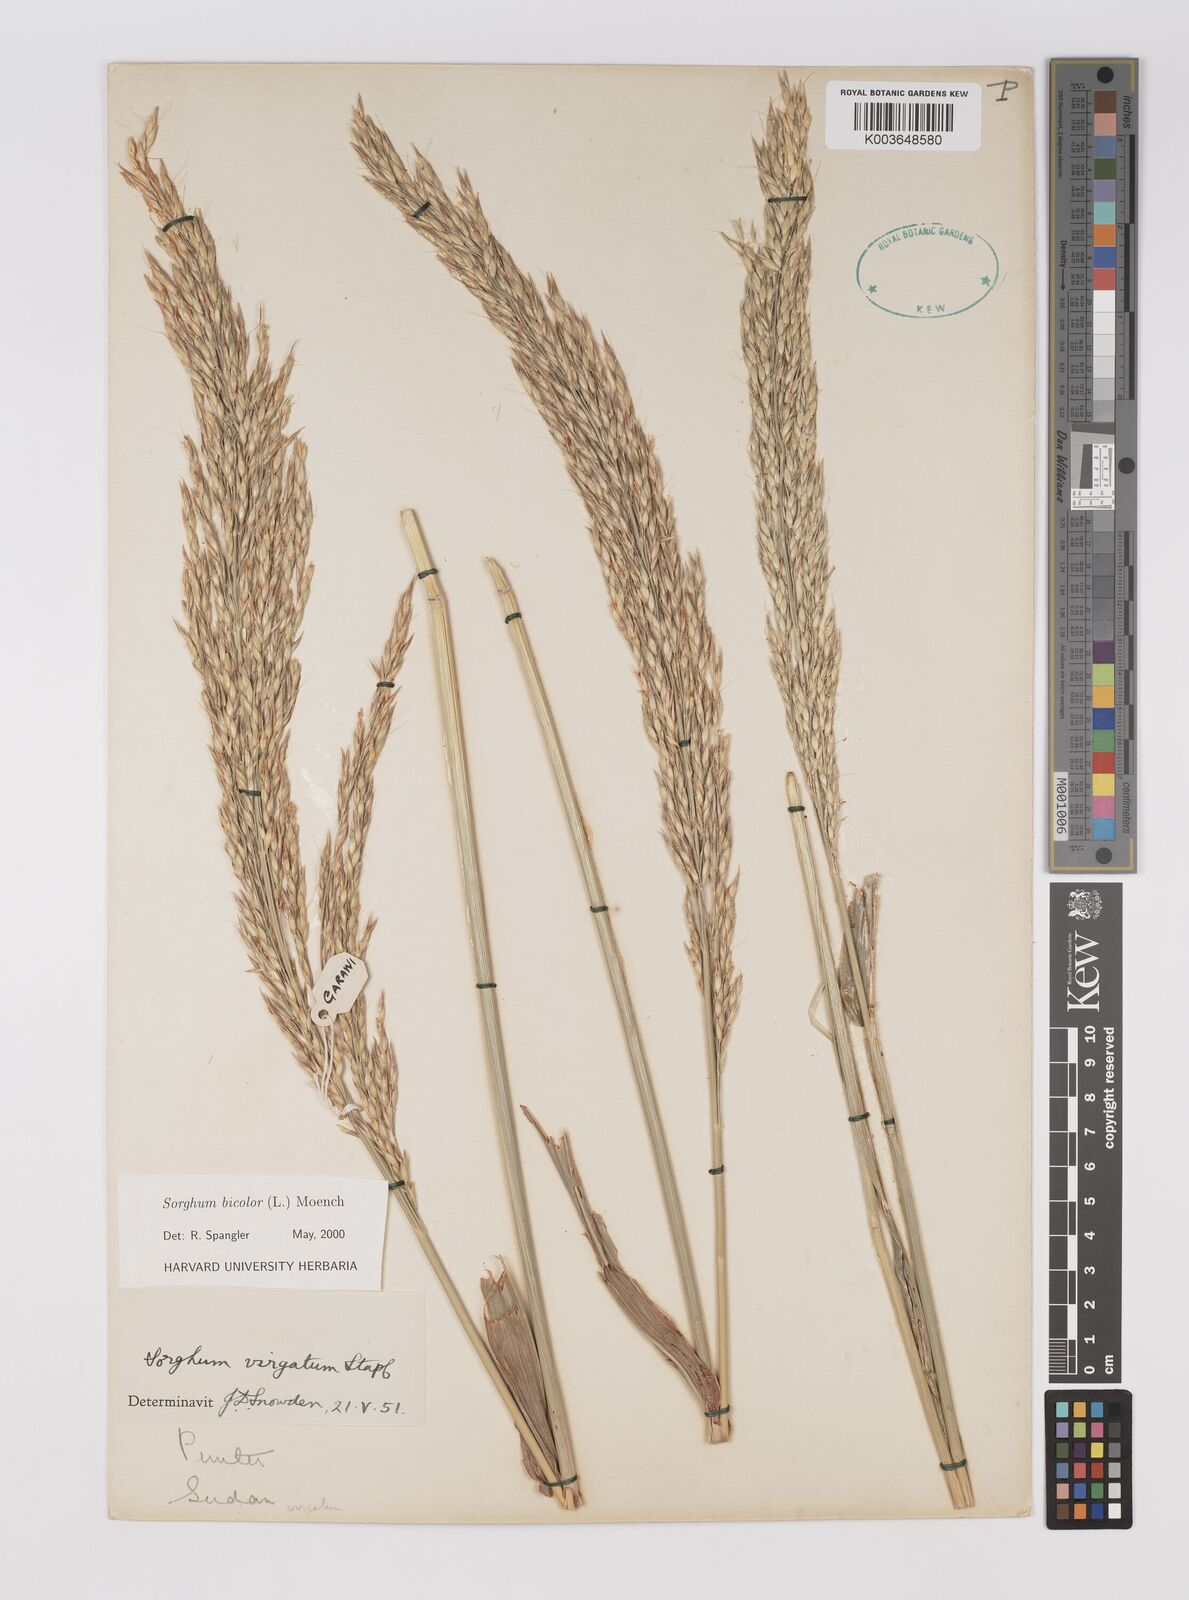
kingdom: Plantae
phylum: Tracheophyta
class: Liliopsida
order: Poales
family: Poaceae
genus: Hyparrhenia
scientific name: Hyparrhenia dichroa
